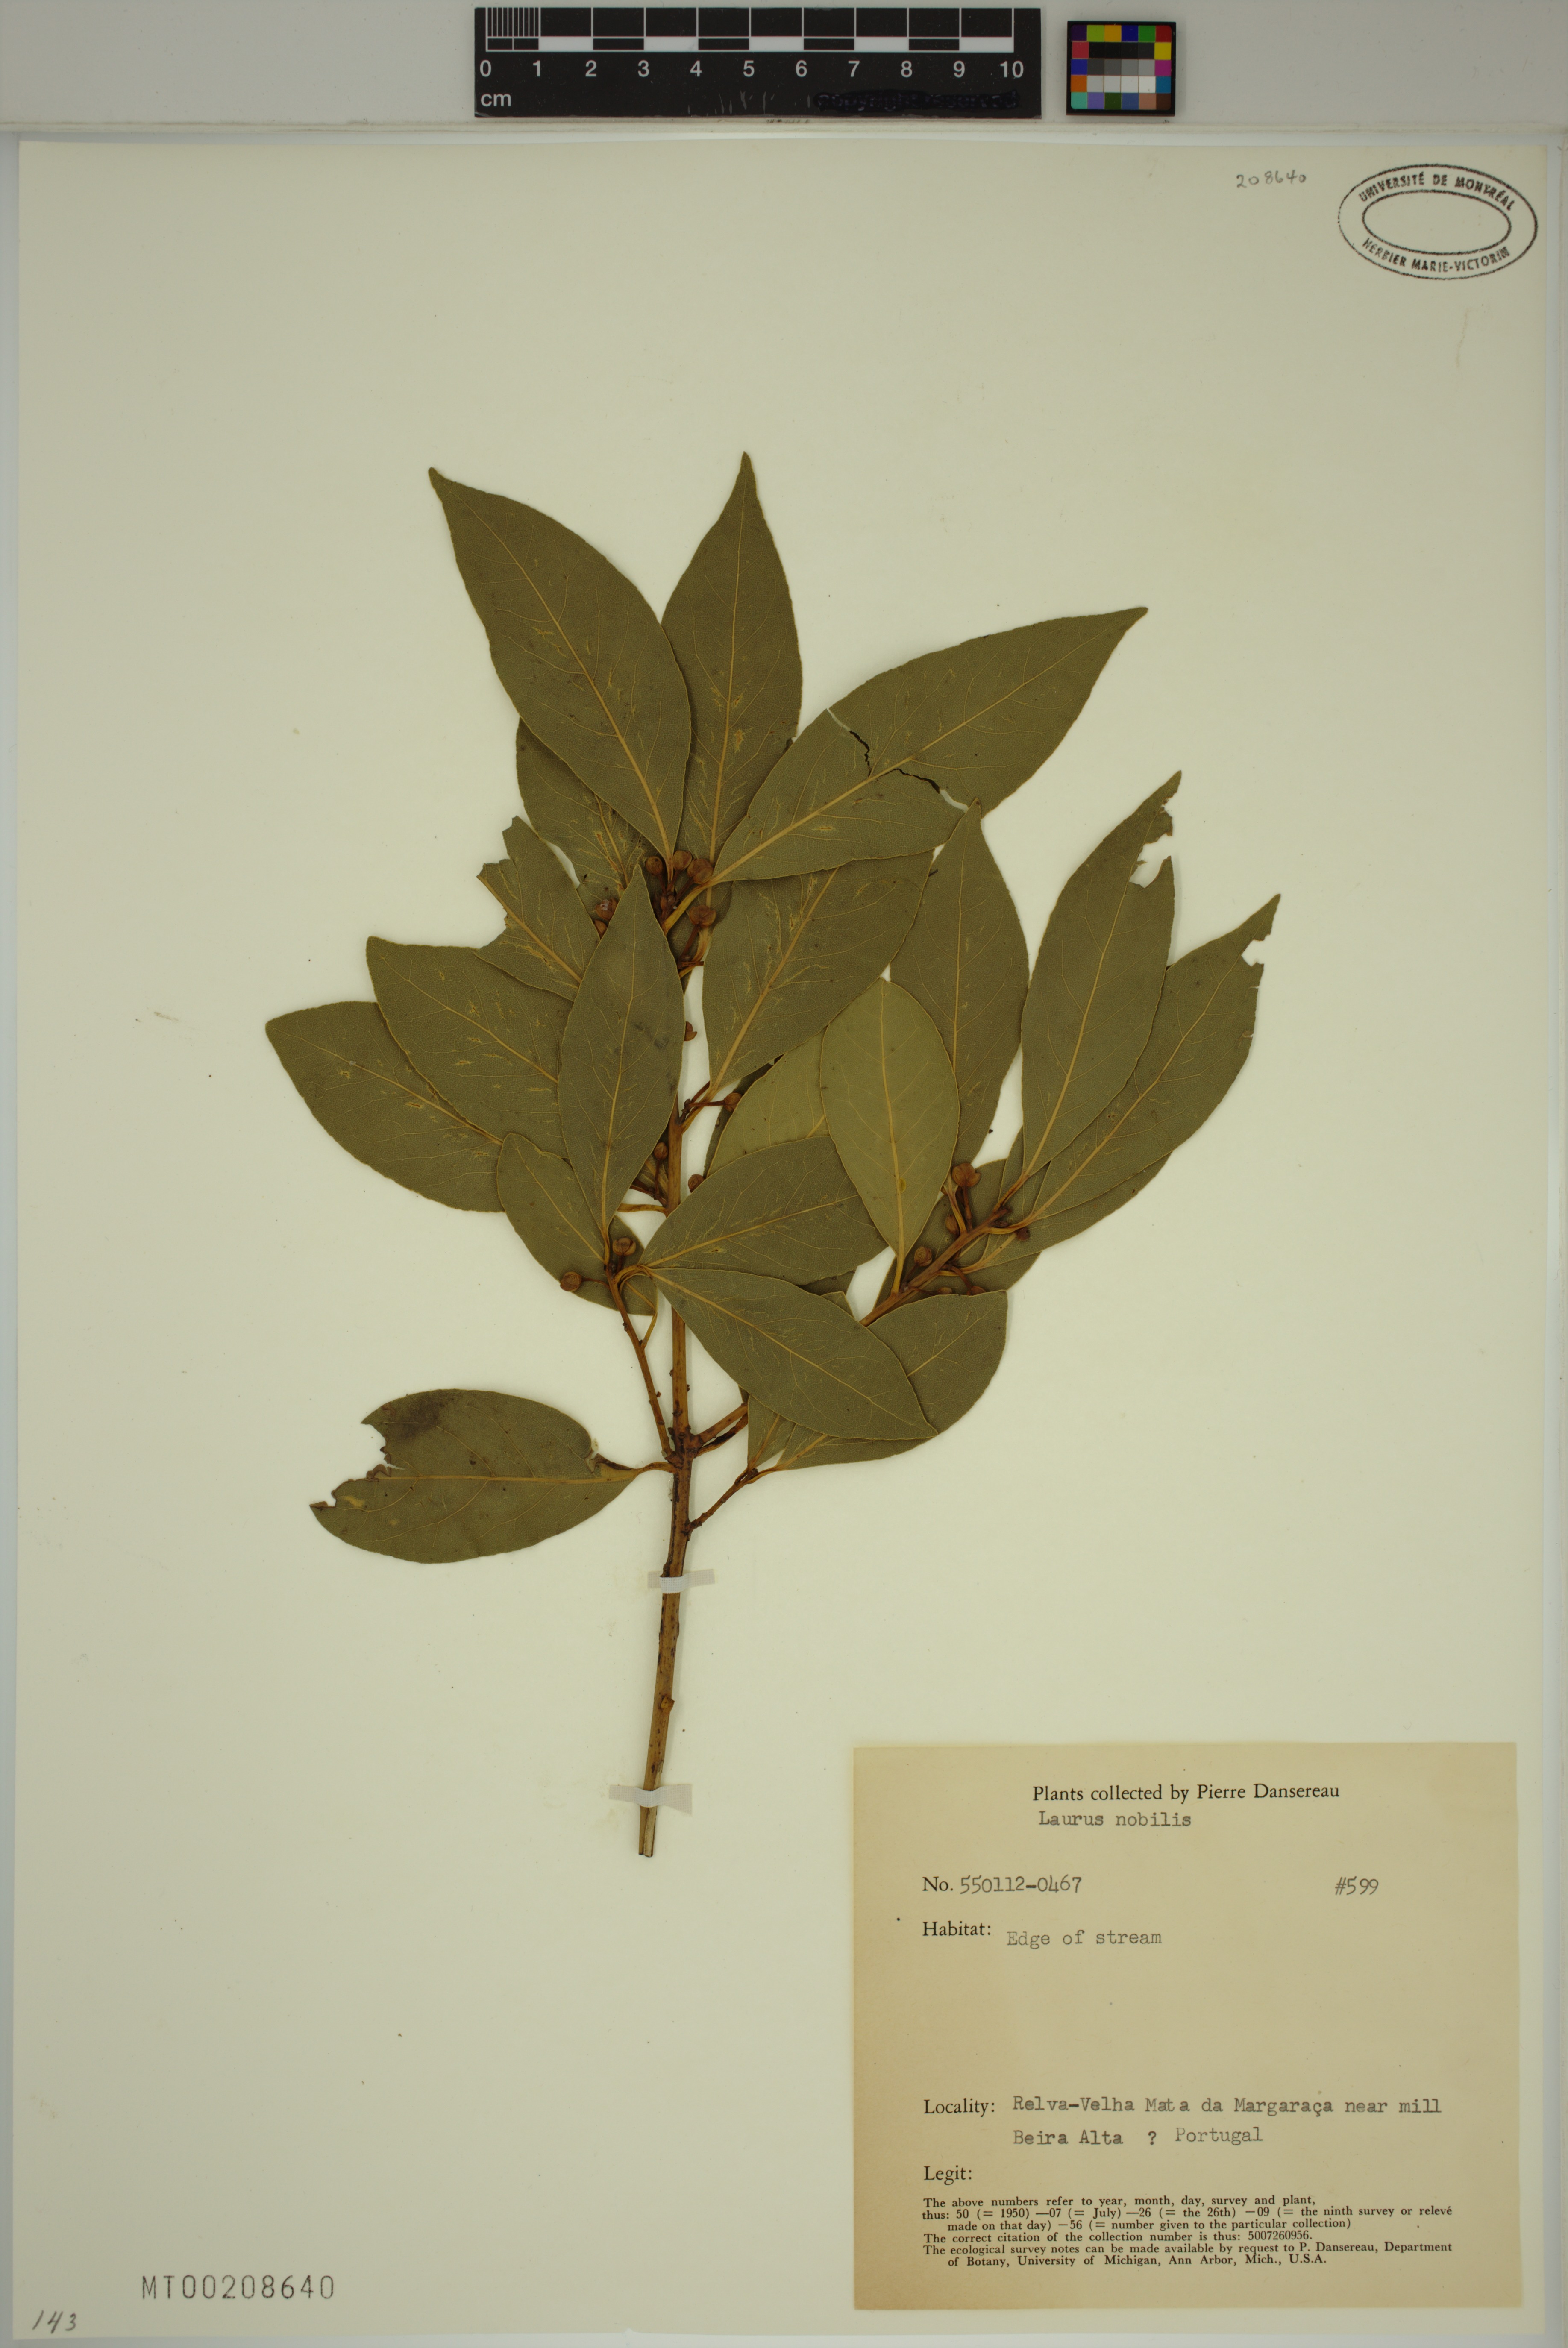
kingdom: Plantae
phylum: Tracheophyta
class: Magnoliopsida
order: Laurales
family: Lauraceae
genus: Laurus
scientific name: Laurus nobilis
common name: Bay
